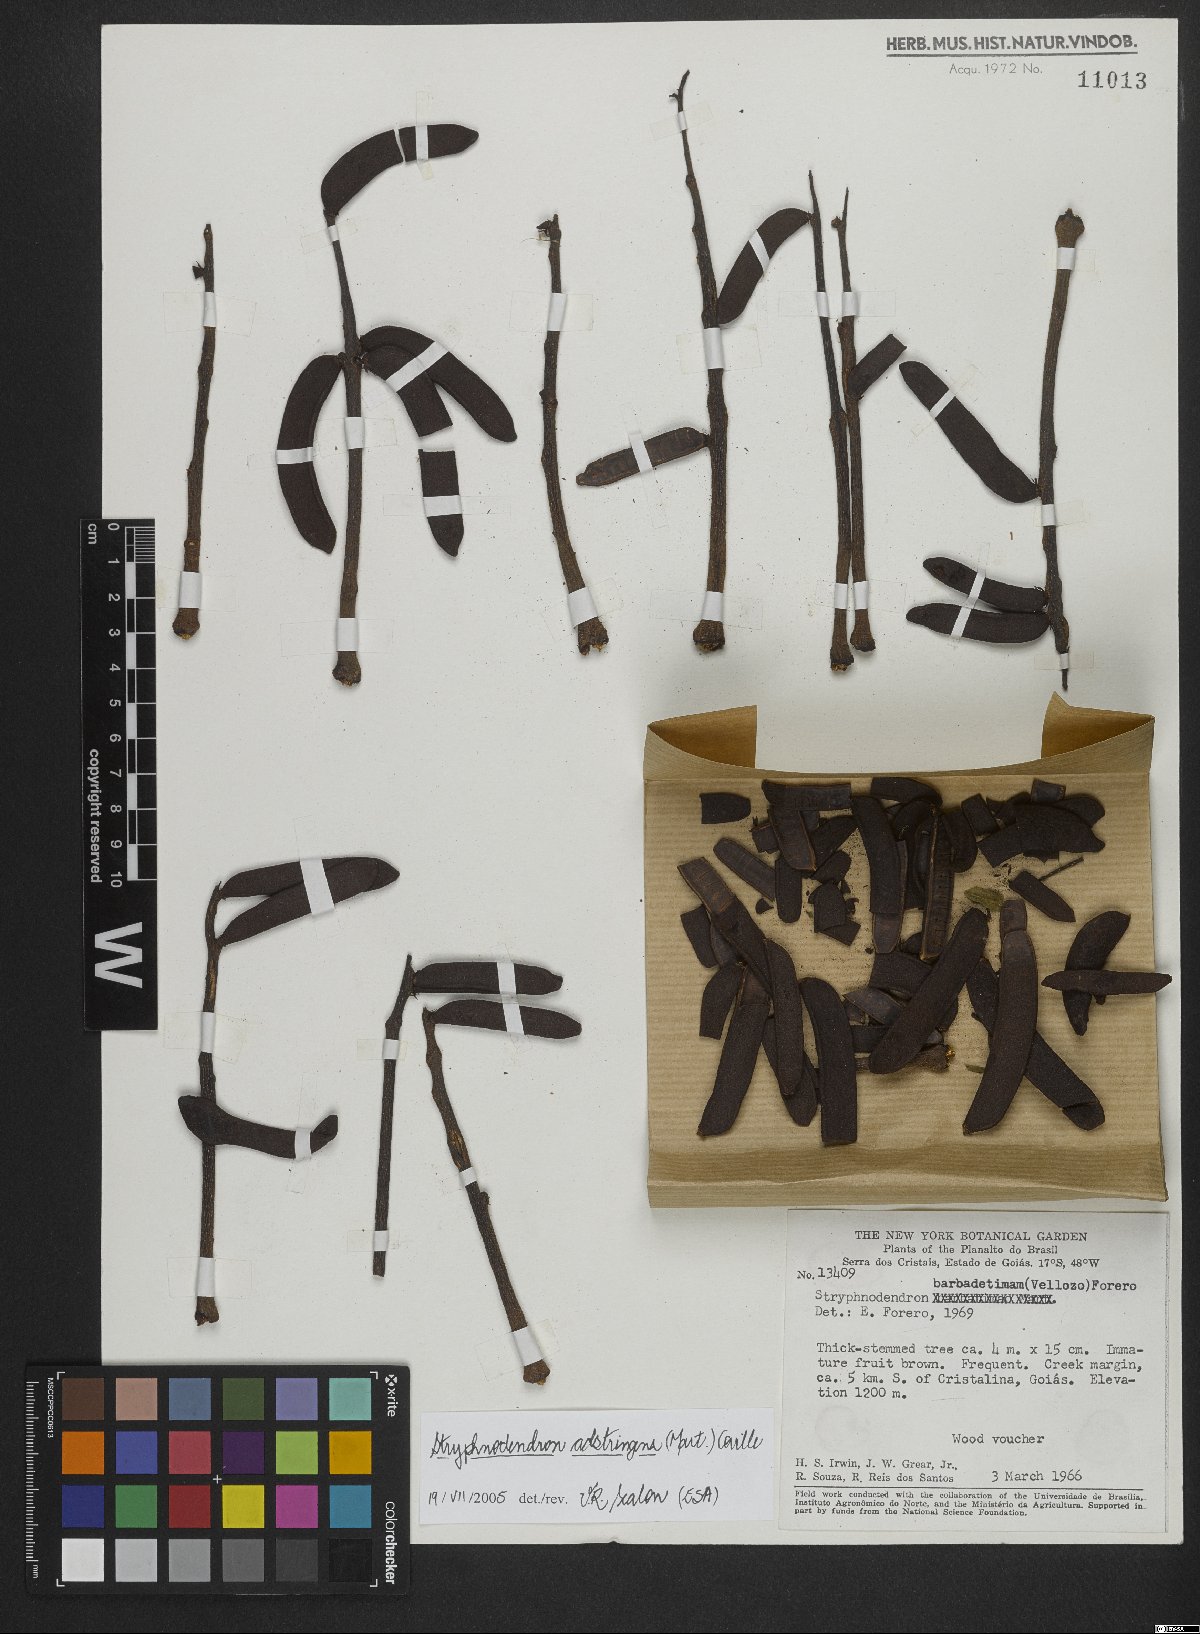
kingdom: Plantae
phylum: Tracheophyta
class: Magnoliopsida
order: Fabales
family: Fabaceae
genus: Stryphnodendron
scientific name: Stryphnodendron adstringens
